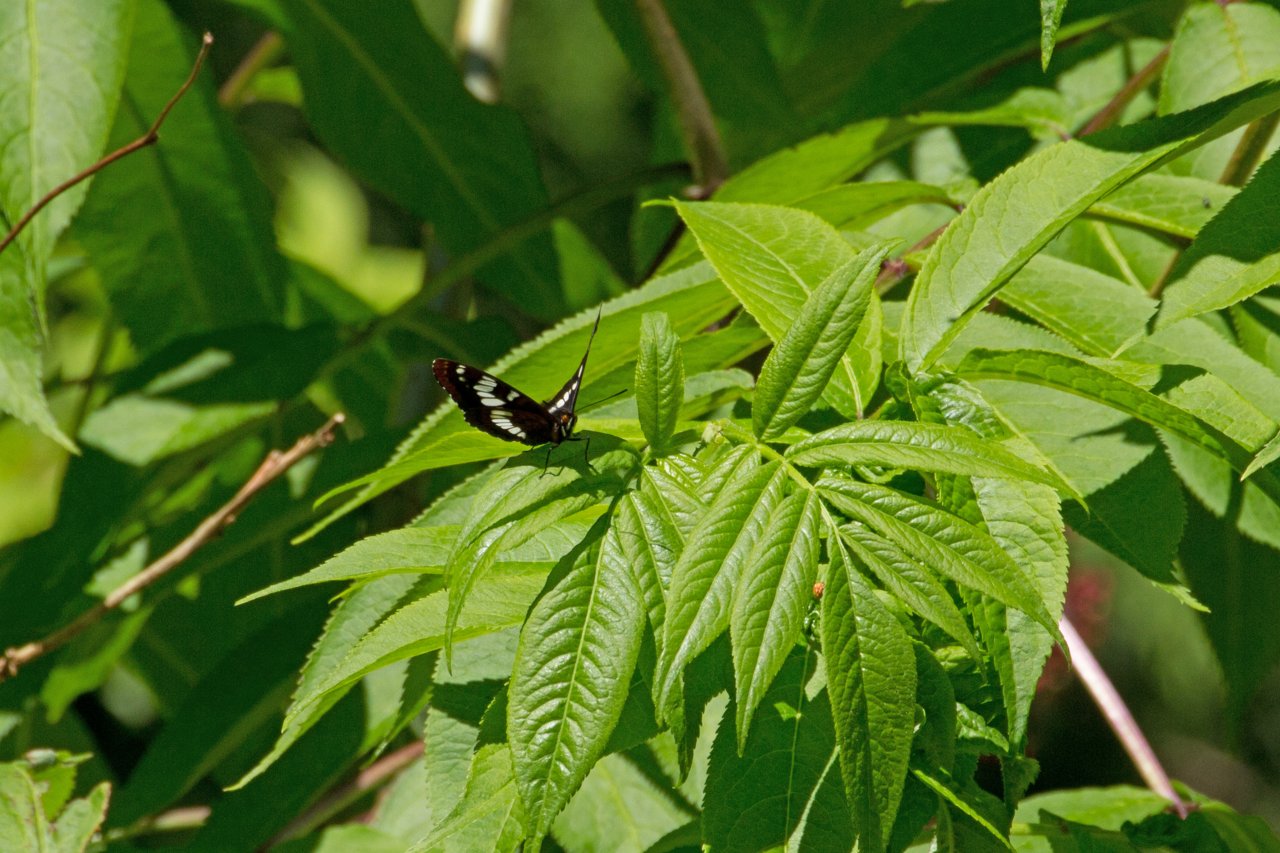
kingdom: Animalia
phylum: Arthropoda
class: Insecta
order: Lepidoptera
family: Nymphalidae
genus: Limenitis
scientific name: Limenitis lorquini
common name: Lorquin's Admiral
